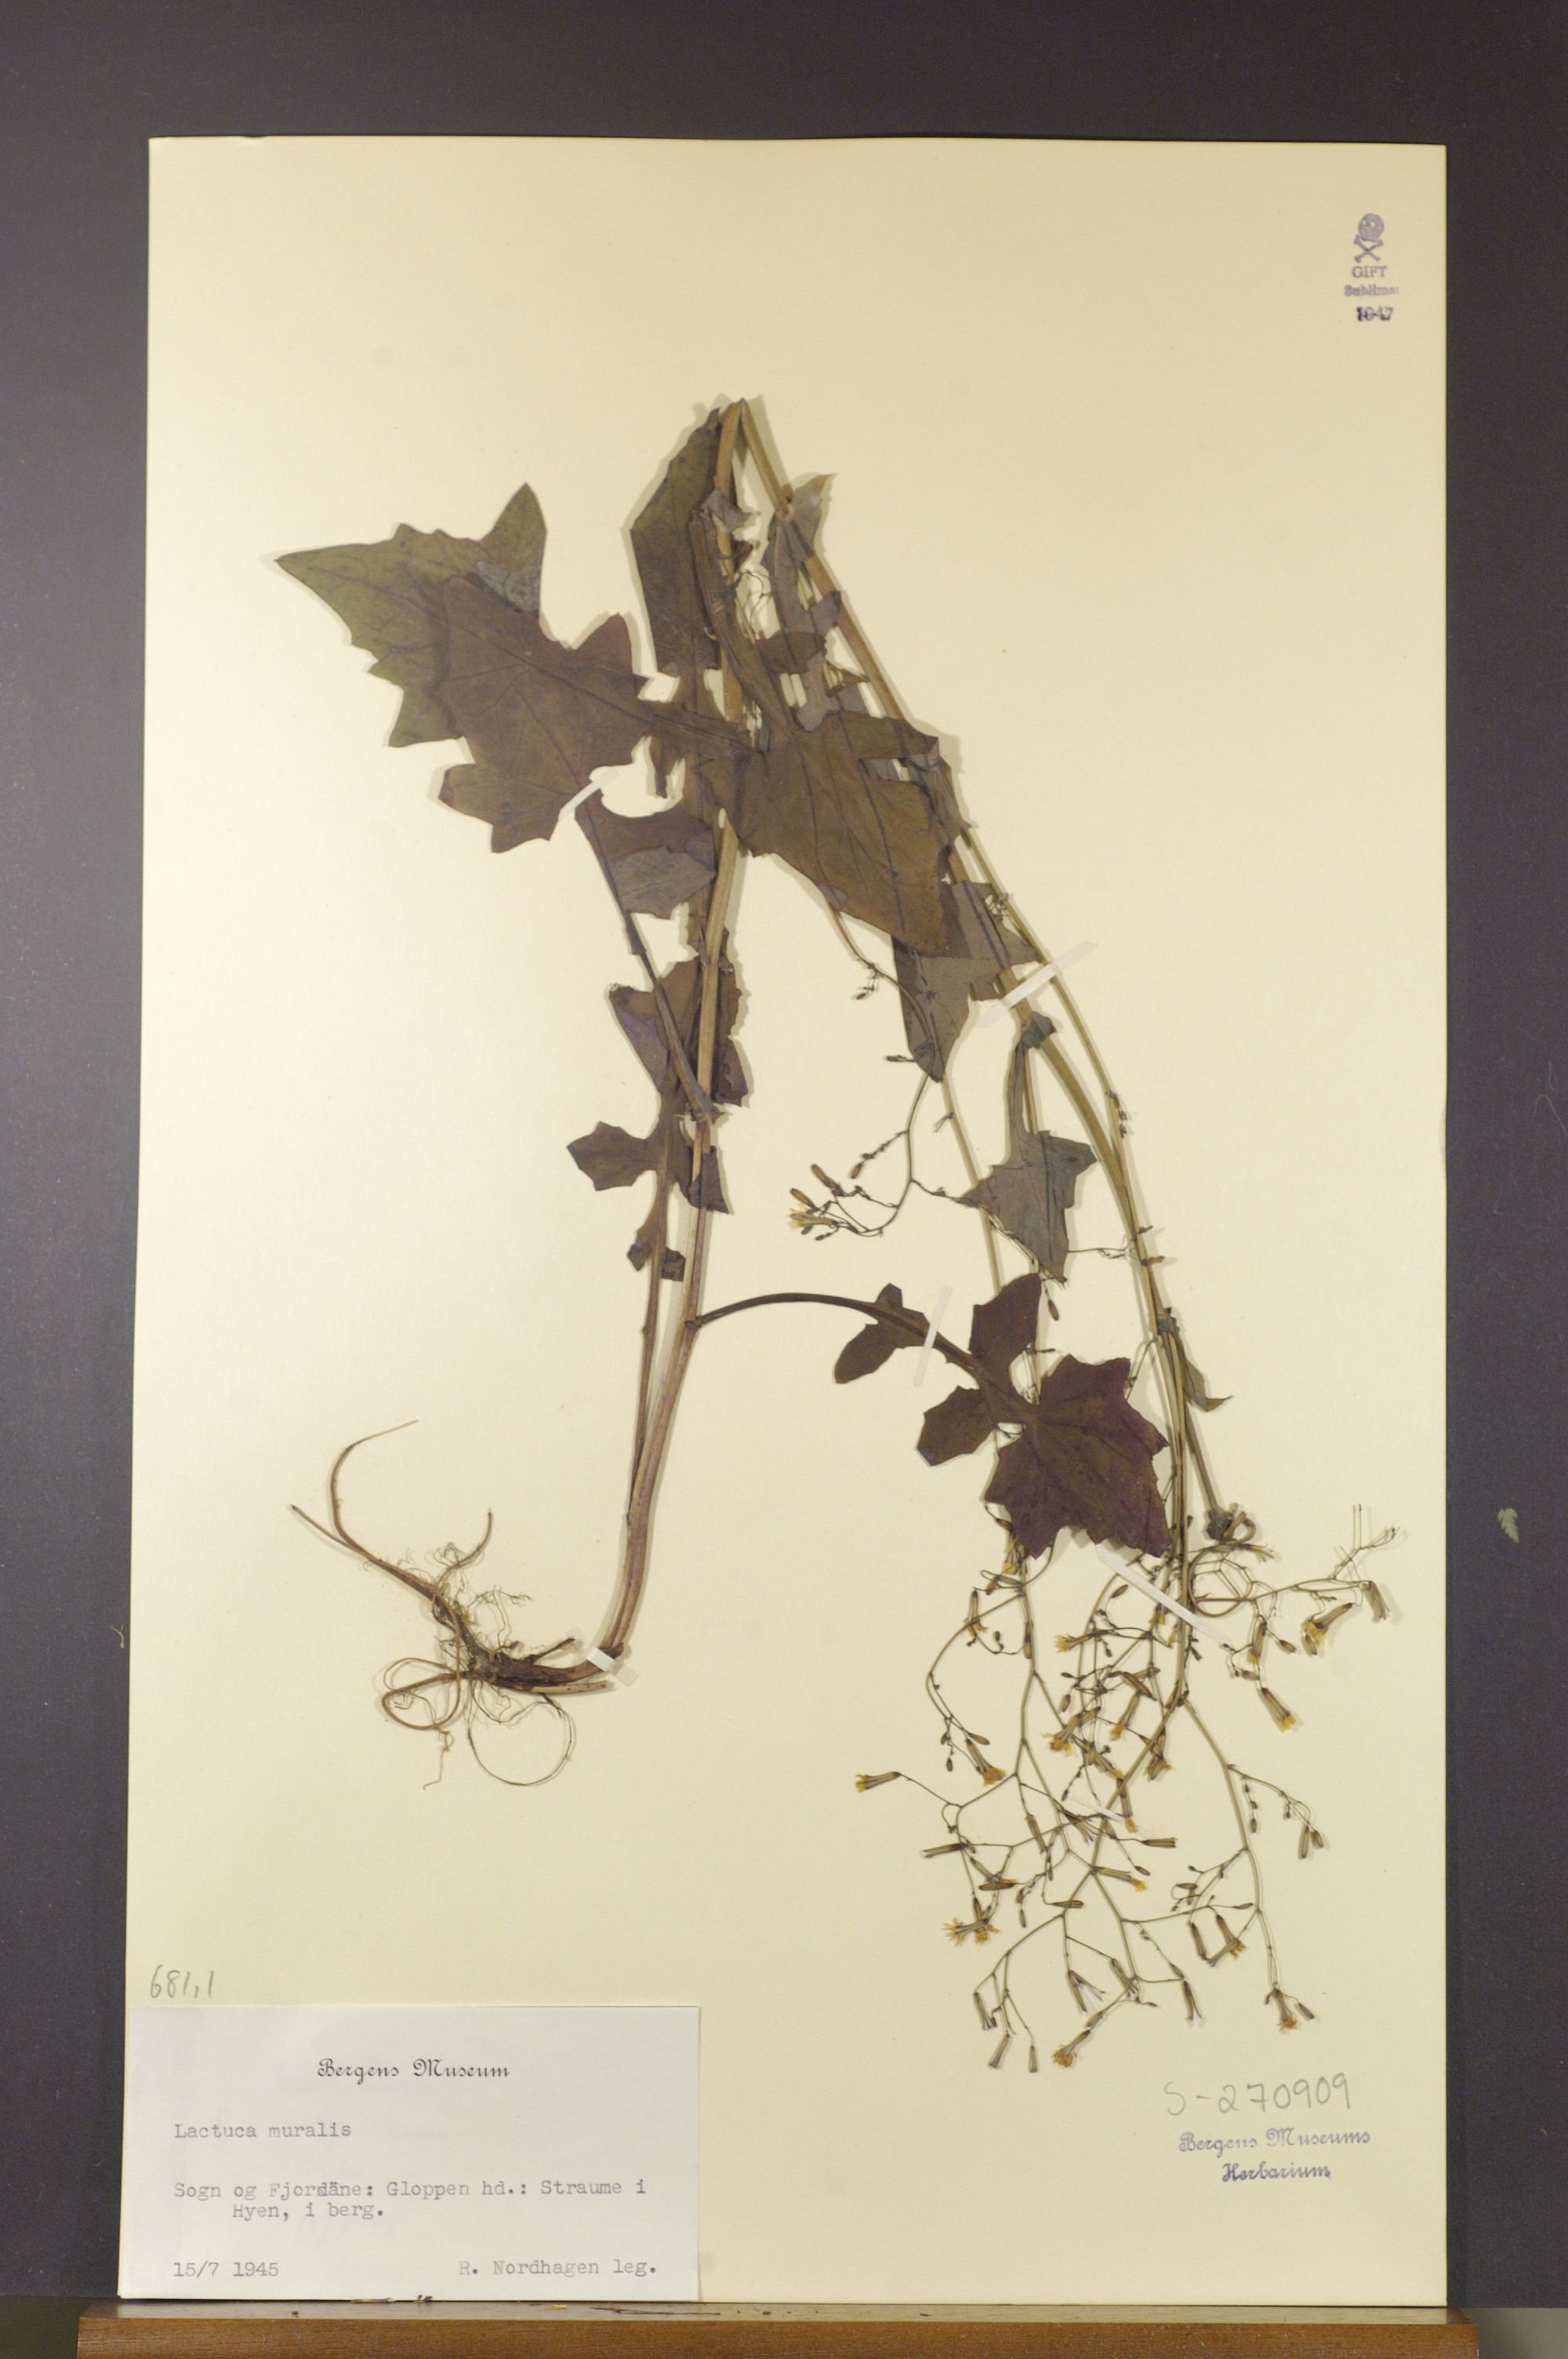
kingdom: Plantae
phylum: Tracheophyta
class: Magnoliopsida
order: Asterales
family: Asteraceae
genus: Mycelis
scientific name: Mycelis muralis
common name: Wall lettuce
